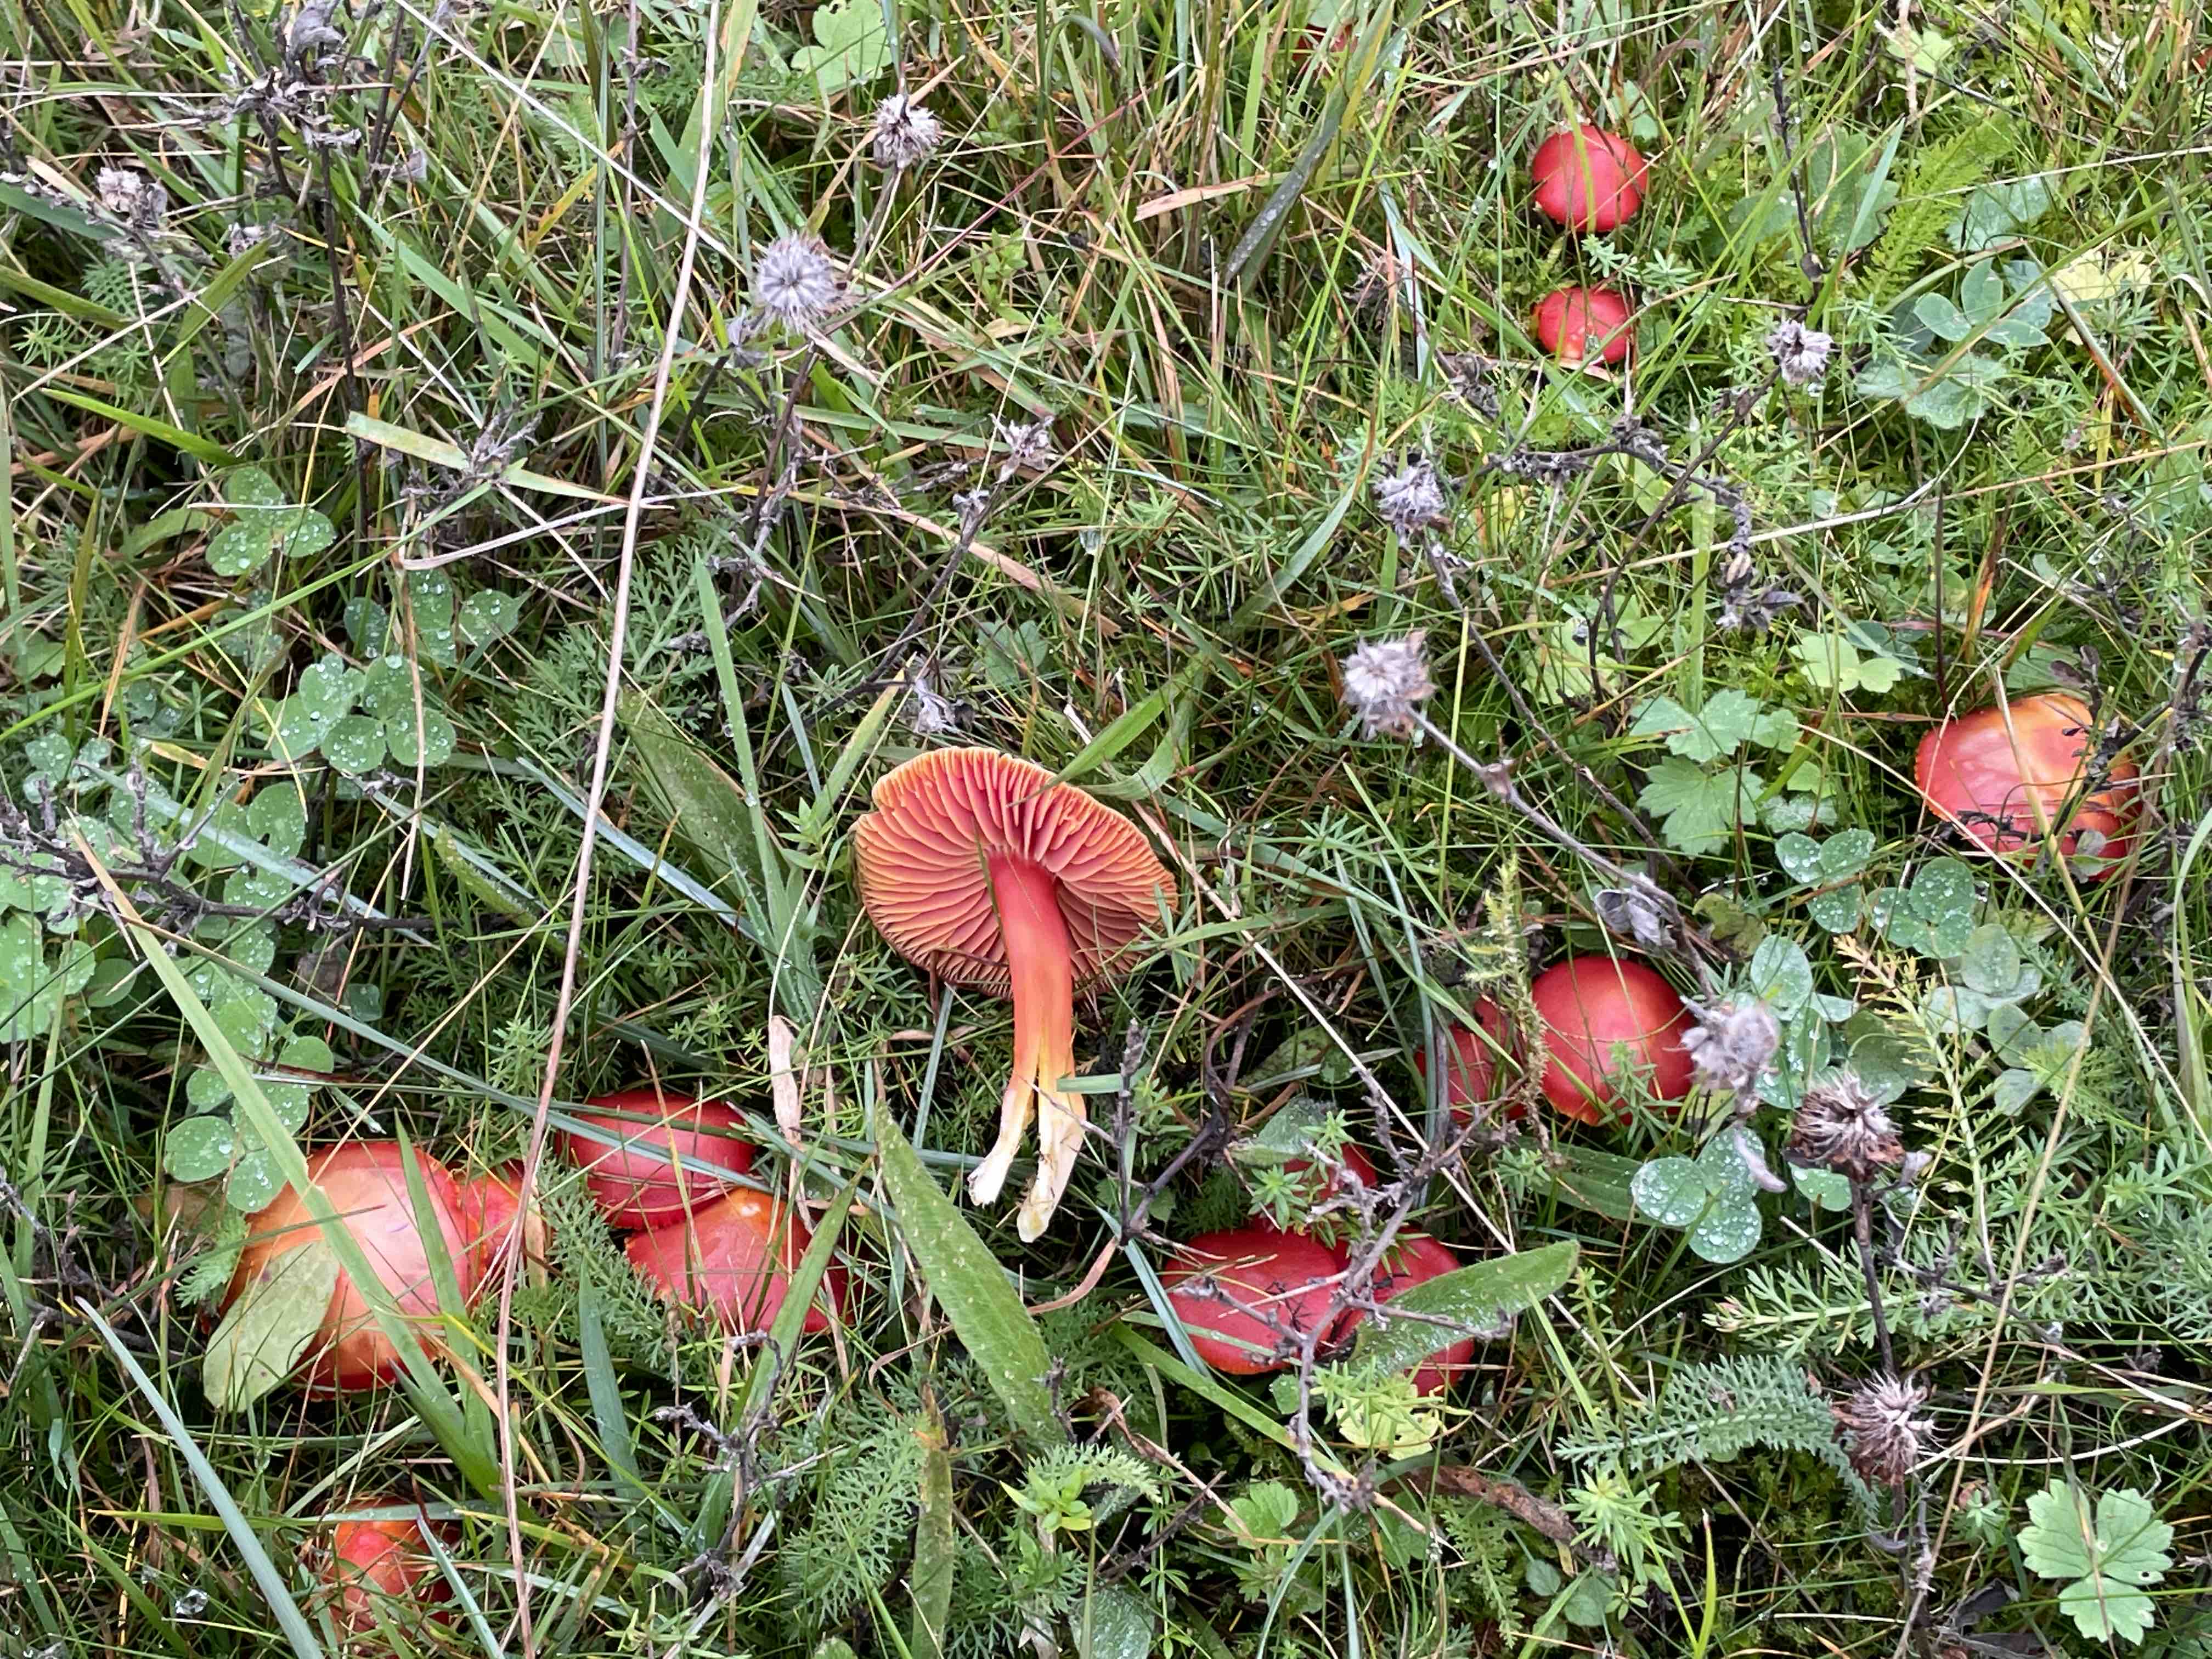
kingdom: Fungi
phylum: Basidiomycota
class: Agaricomycetes
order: Agaricales
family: Hygrophoraceae
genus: Hygrocybe
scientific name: Hygrocybe coccinea
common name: cinnober-vokshat
